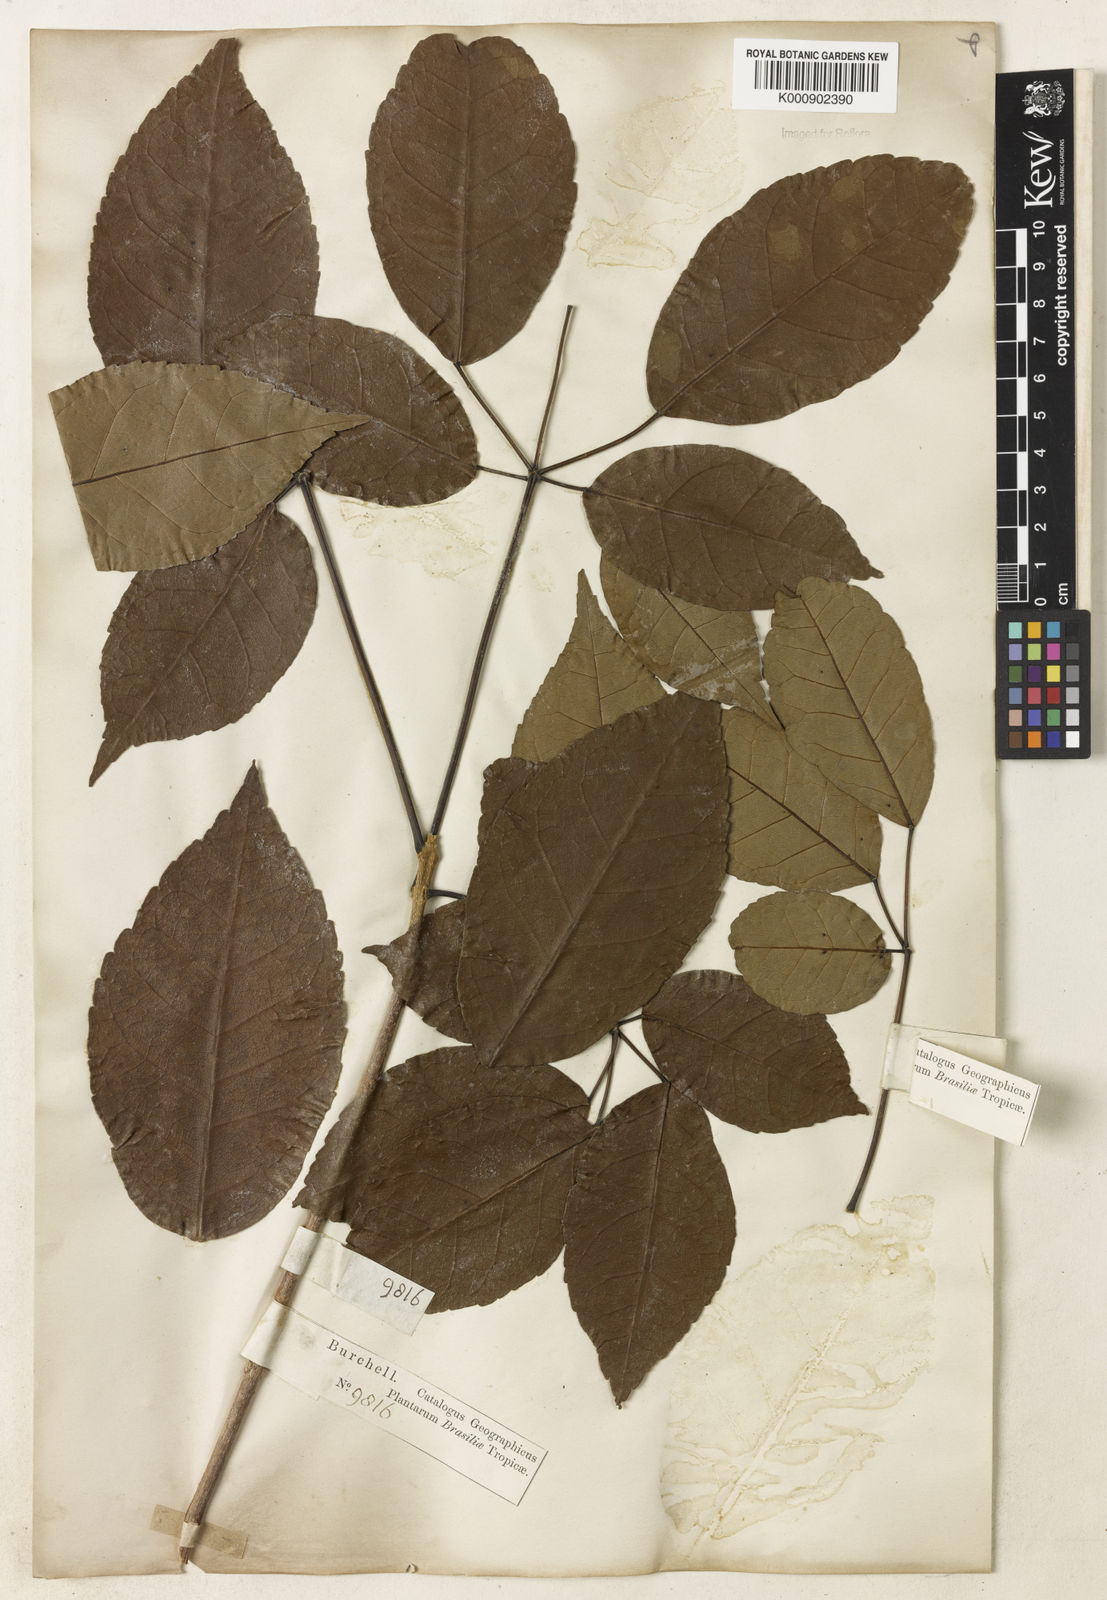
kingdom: Plantae
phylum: Tracheophyta
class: Magnoliopsida
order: Lamiales
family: Bignoniaceae
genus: Handroanthus
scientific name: Handroanthus serratifolius
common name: Yellow ipe
